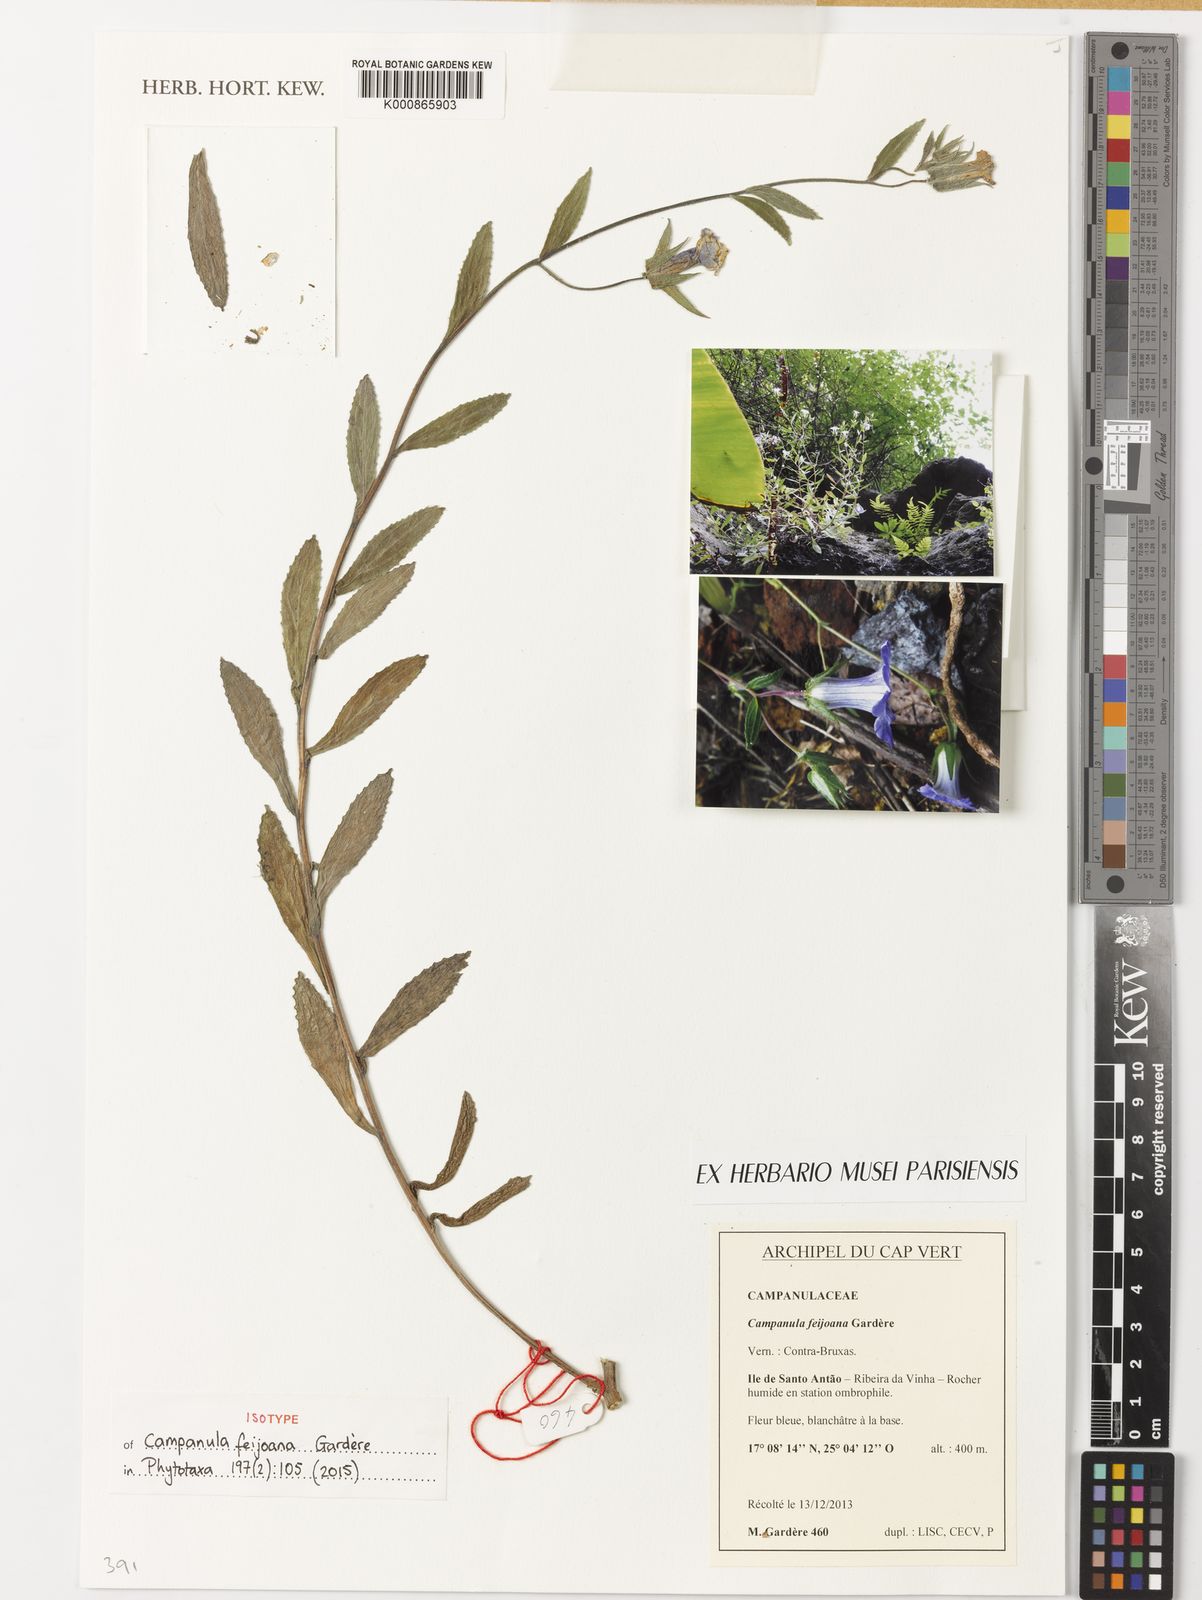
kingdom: Plantae
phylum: Tracheophyta
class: Magnoliopsida
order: Asterales
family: Campanulaceae
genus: Campanula
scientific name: Campanula
